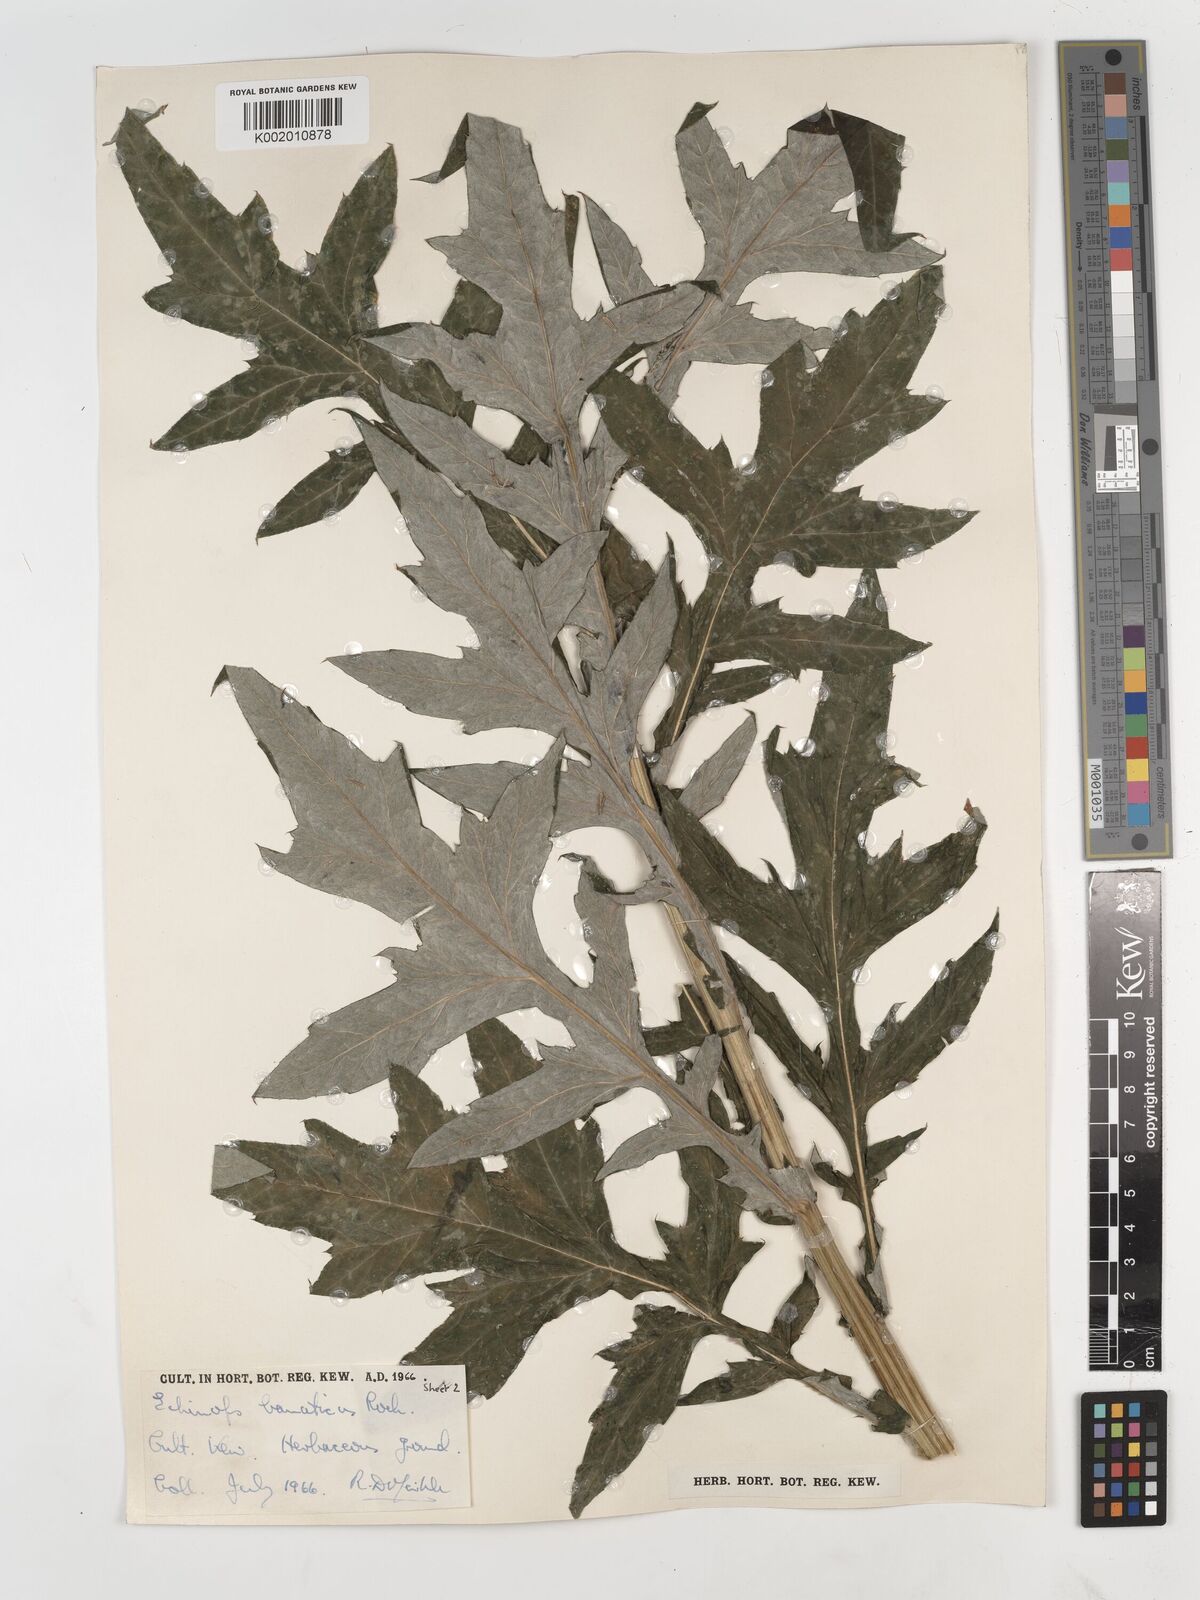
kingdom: Plantae
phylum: Tracheophyta
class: Magnoliopsida
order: Asterales
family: Asteraceae
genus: Echinops
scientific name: Echinops bannaticus
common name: Blue globe-thistle
